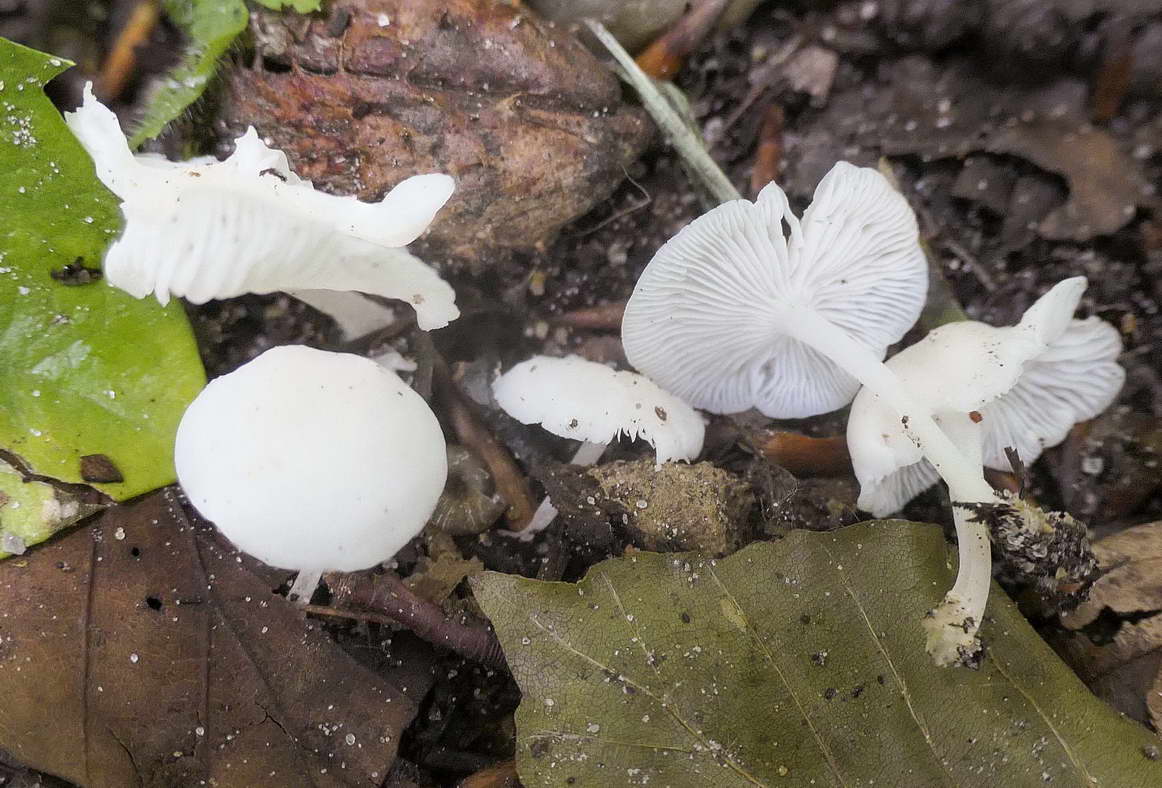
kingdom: Fungi
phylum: Basidiomycota
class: Agaricomycetes
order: Agaricales
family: Mycenaceae
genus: Hemimycena
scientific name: Hemimycena cucullata
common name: tætbladet huesvamp
